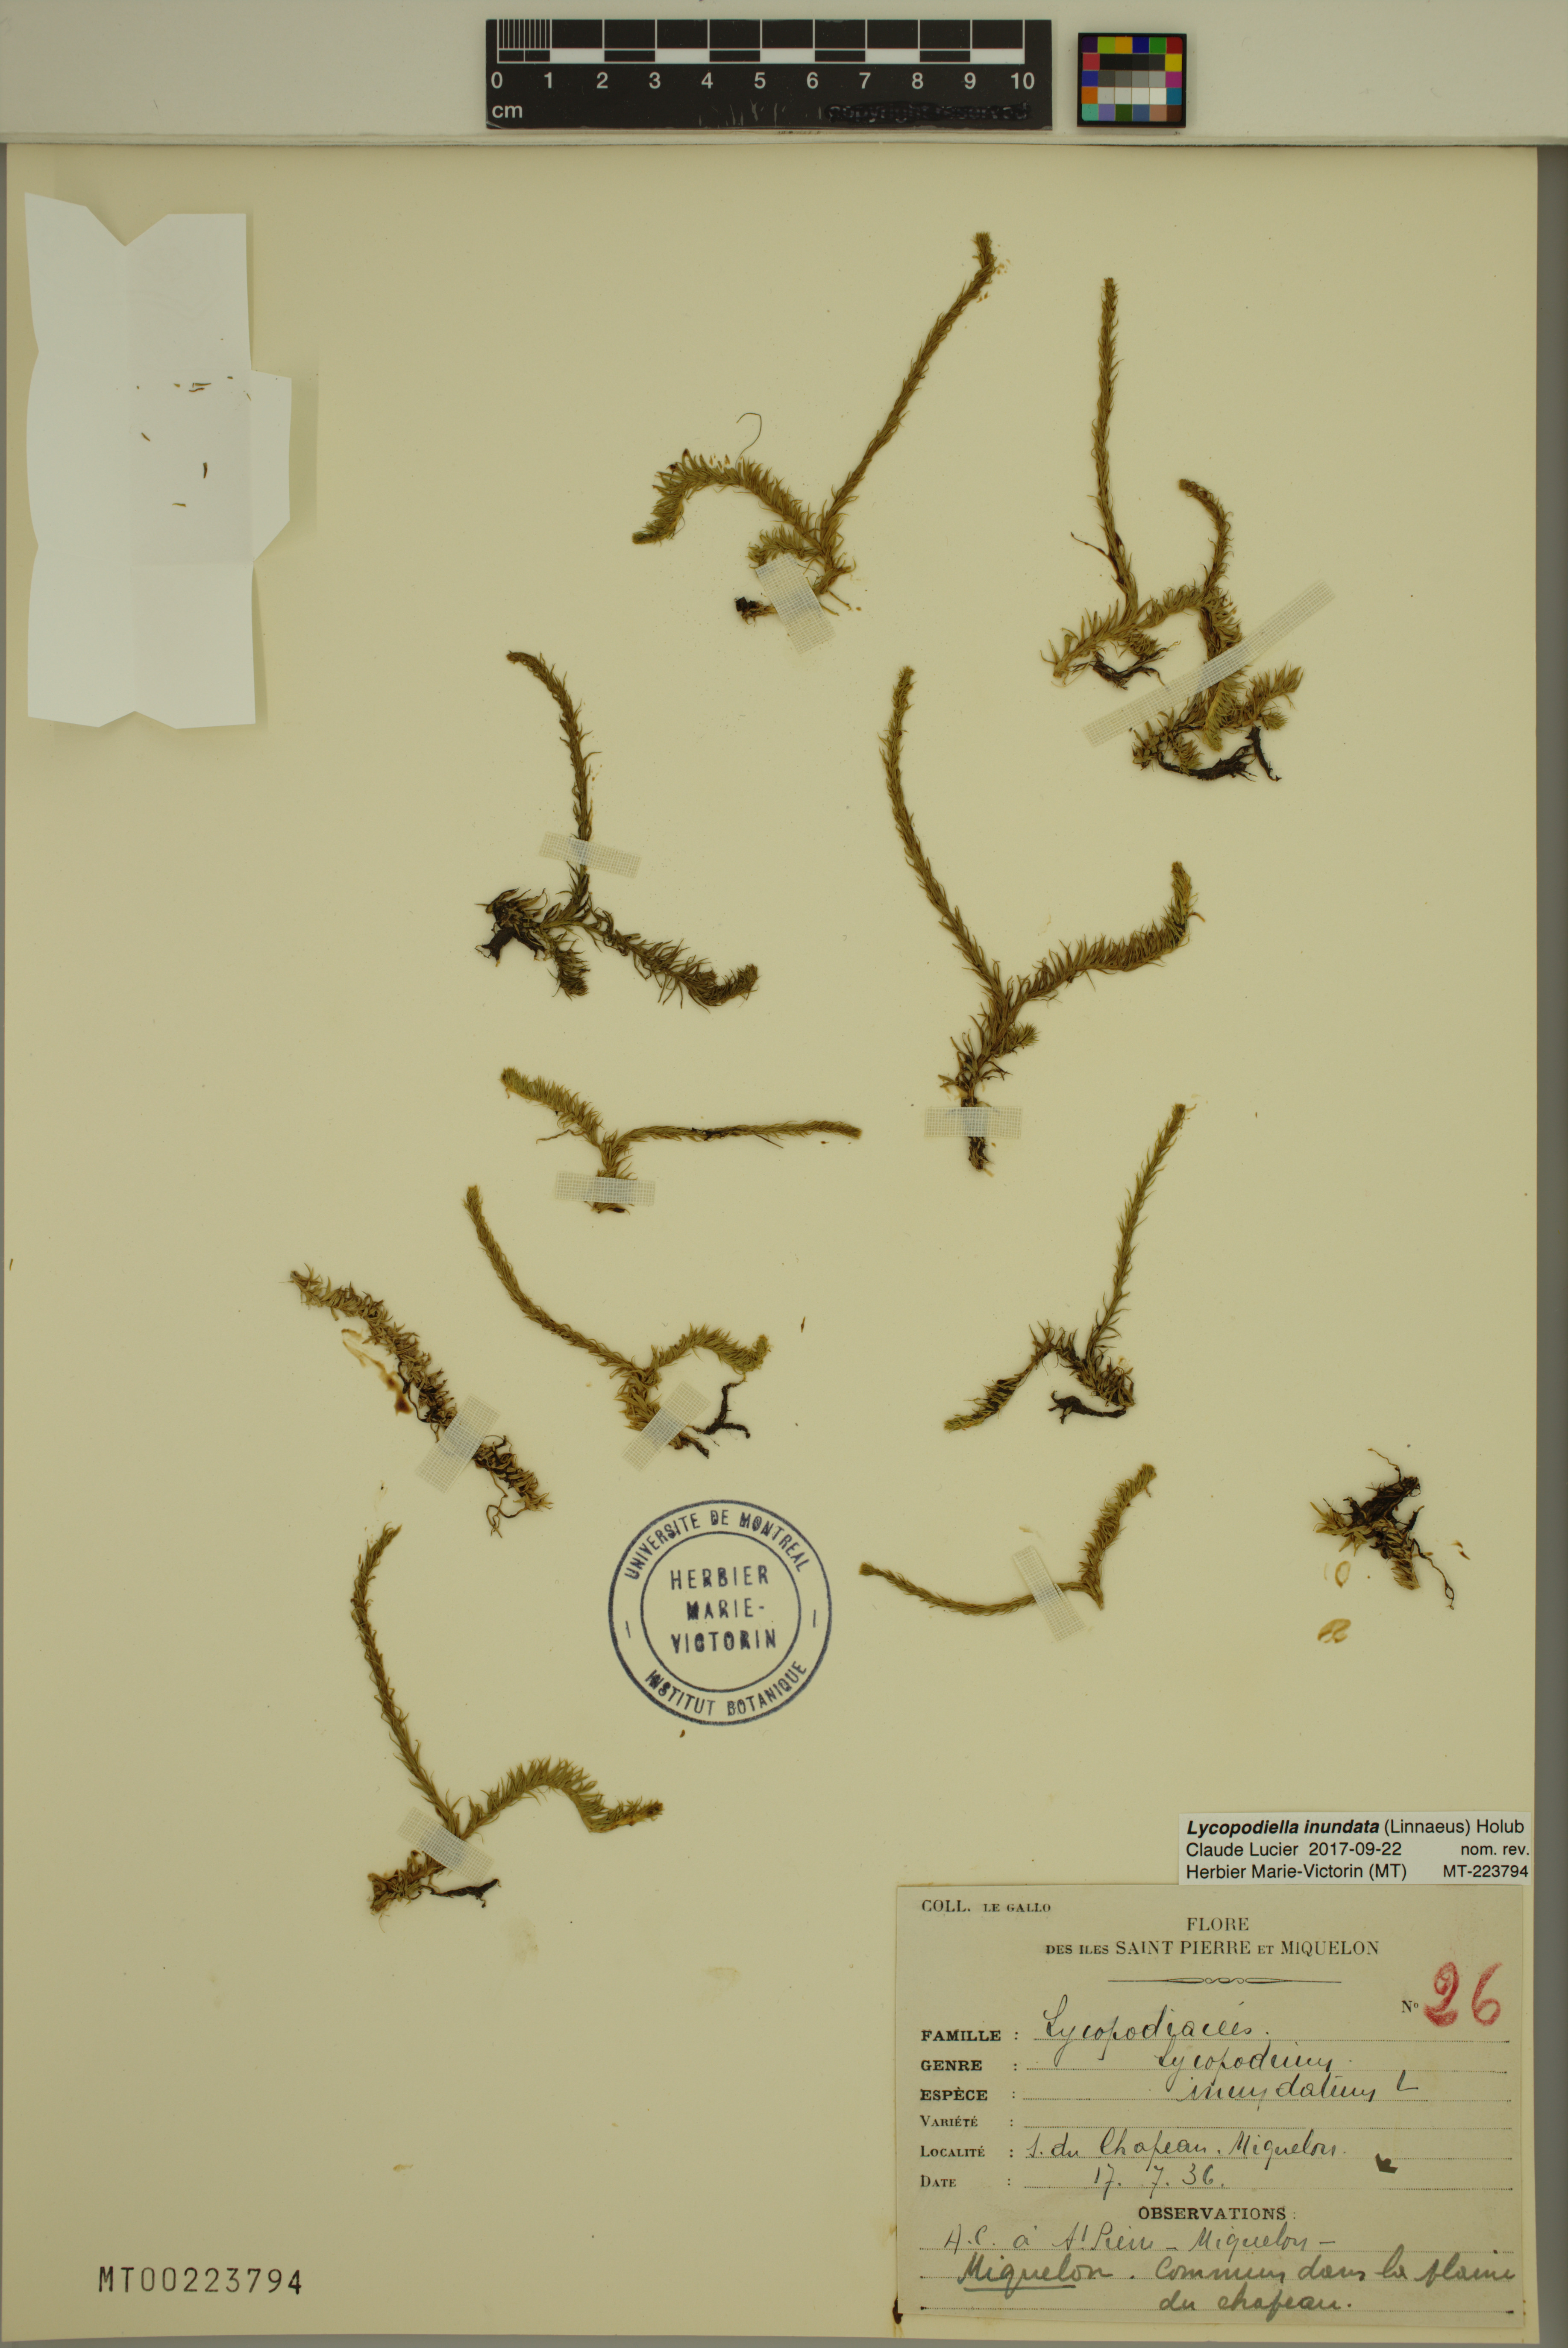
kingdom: Plantae
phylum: Tracheophyta
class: Lycopodiopsida
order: Lycopodiales
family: Lycopodiaceae
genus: Lycopodiella
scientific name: Lycopodiella inundata
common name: Marsh clubmoss
